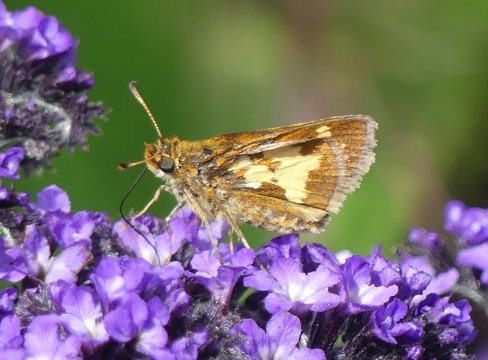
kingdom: Animalia
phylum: Arthropoda
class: Insecta
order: Lepidoptera
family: Hesperiidae
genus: Polites
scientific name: Polites coras
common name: Peck's Skipper
